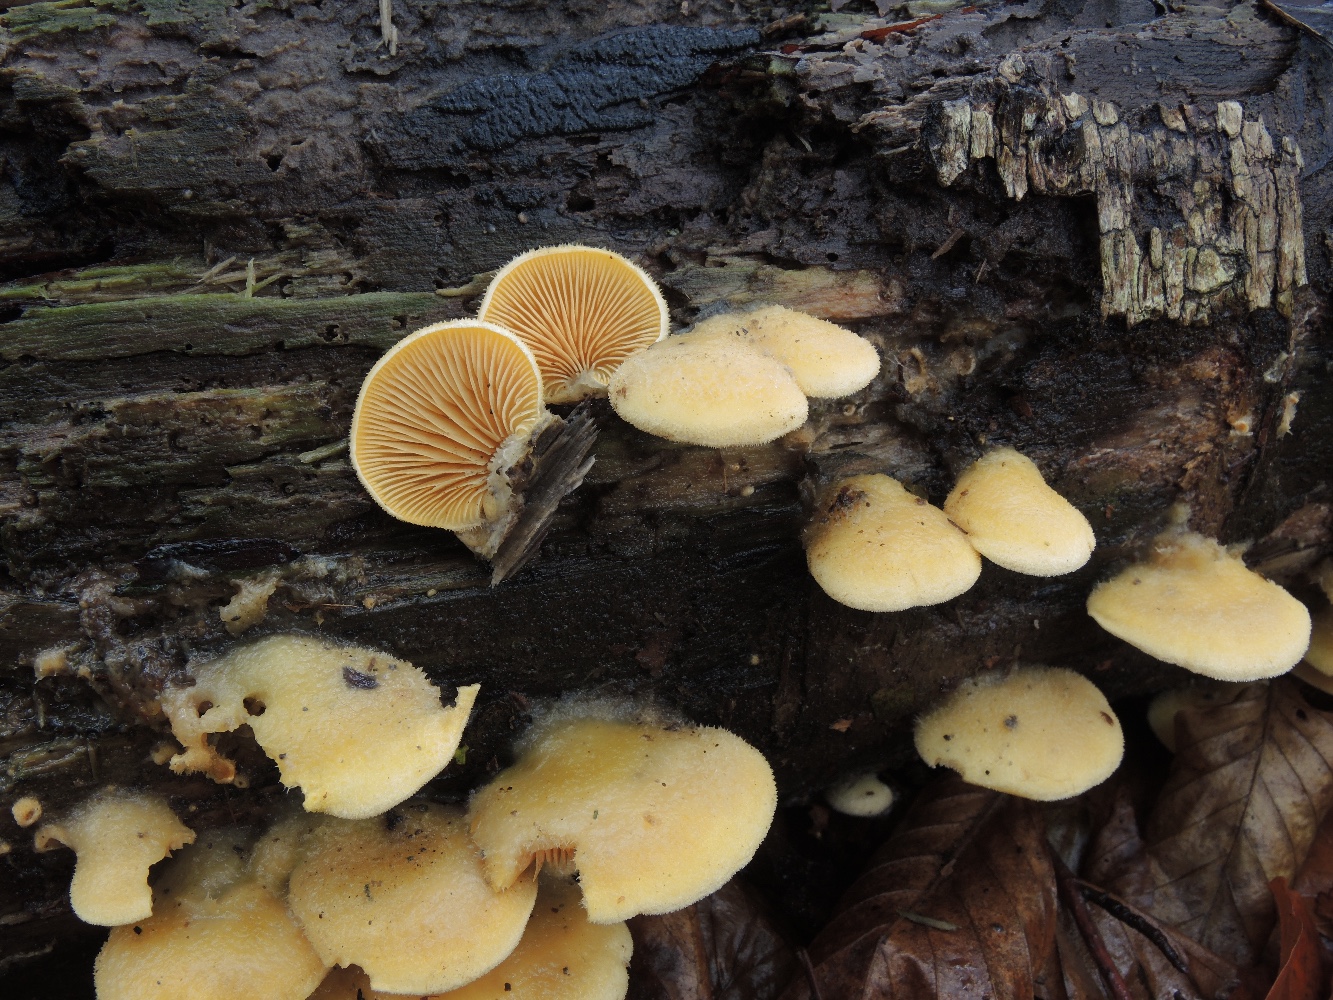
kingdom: Fungi
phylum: Basidiomycota
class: Agaricomycetes
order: Agaricales
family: Phyllotopsidaceae
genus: Phyllotopsis
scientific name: Phyllotopsis nidulans
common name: okkerblad
